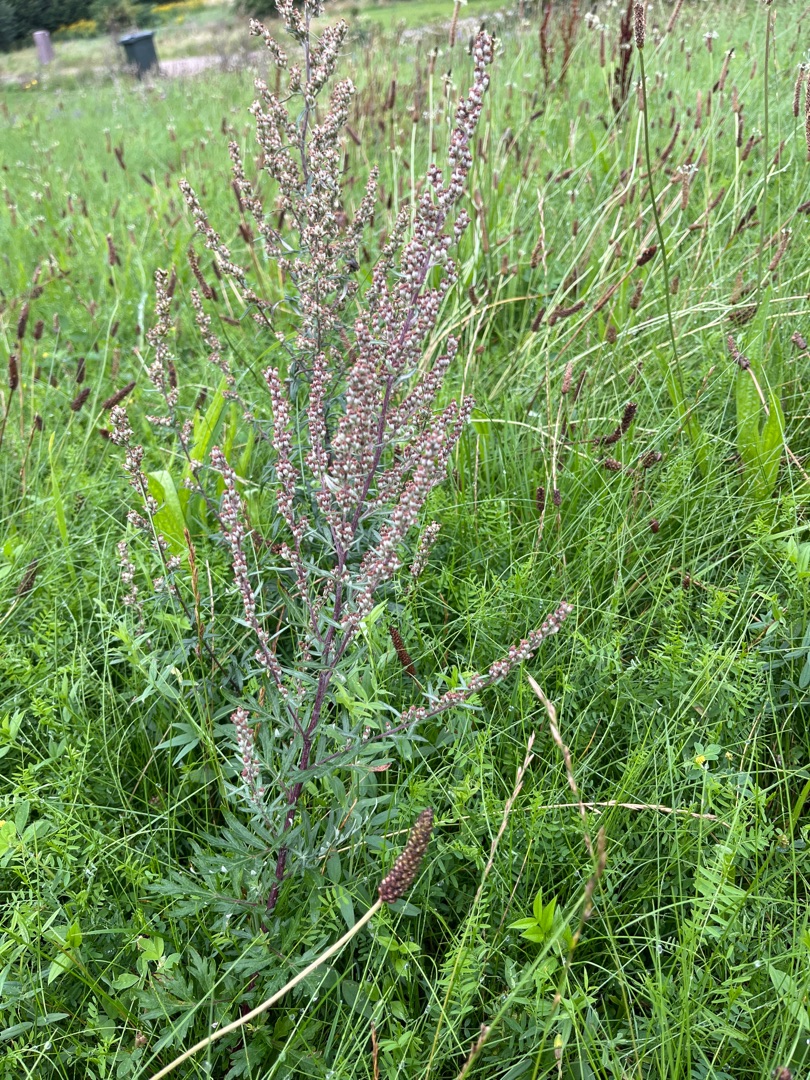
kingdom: Plantae
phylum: Tracheophyta
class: Magnoliopsida
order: Asterales
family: Asteraceae
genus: Artemisia
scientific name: Artemisia vulgaris
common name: Grå-bynke
